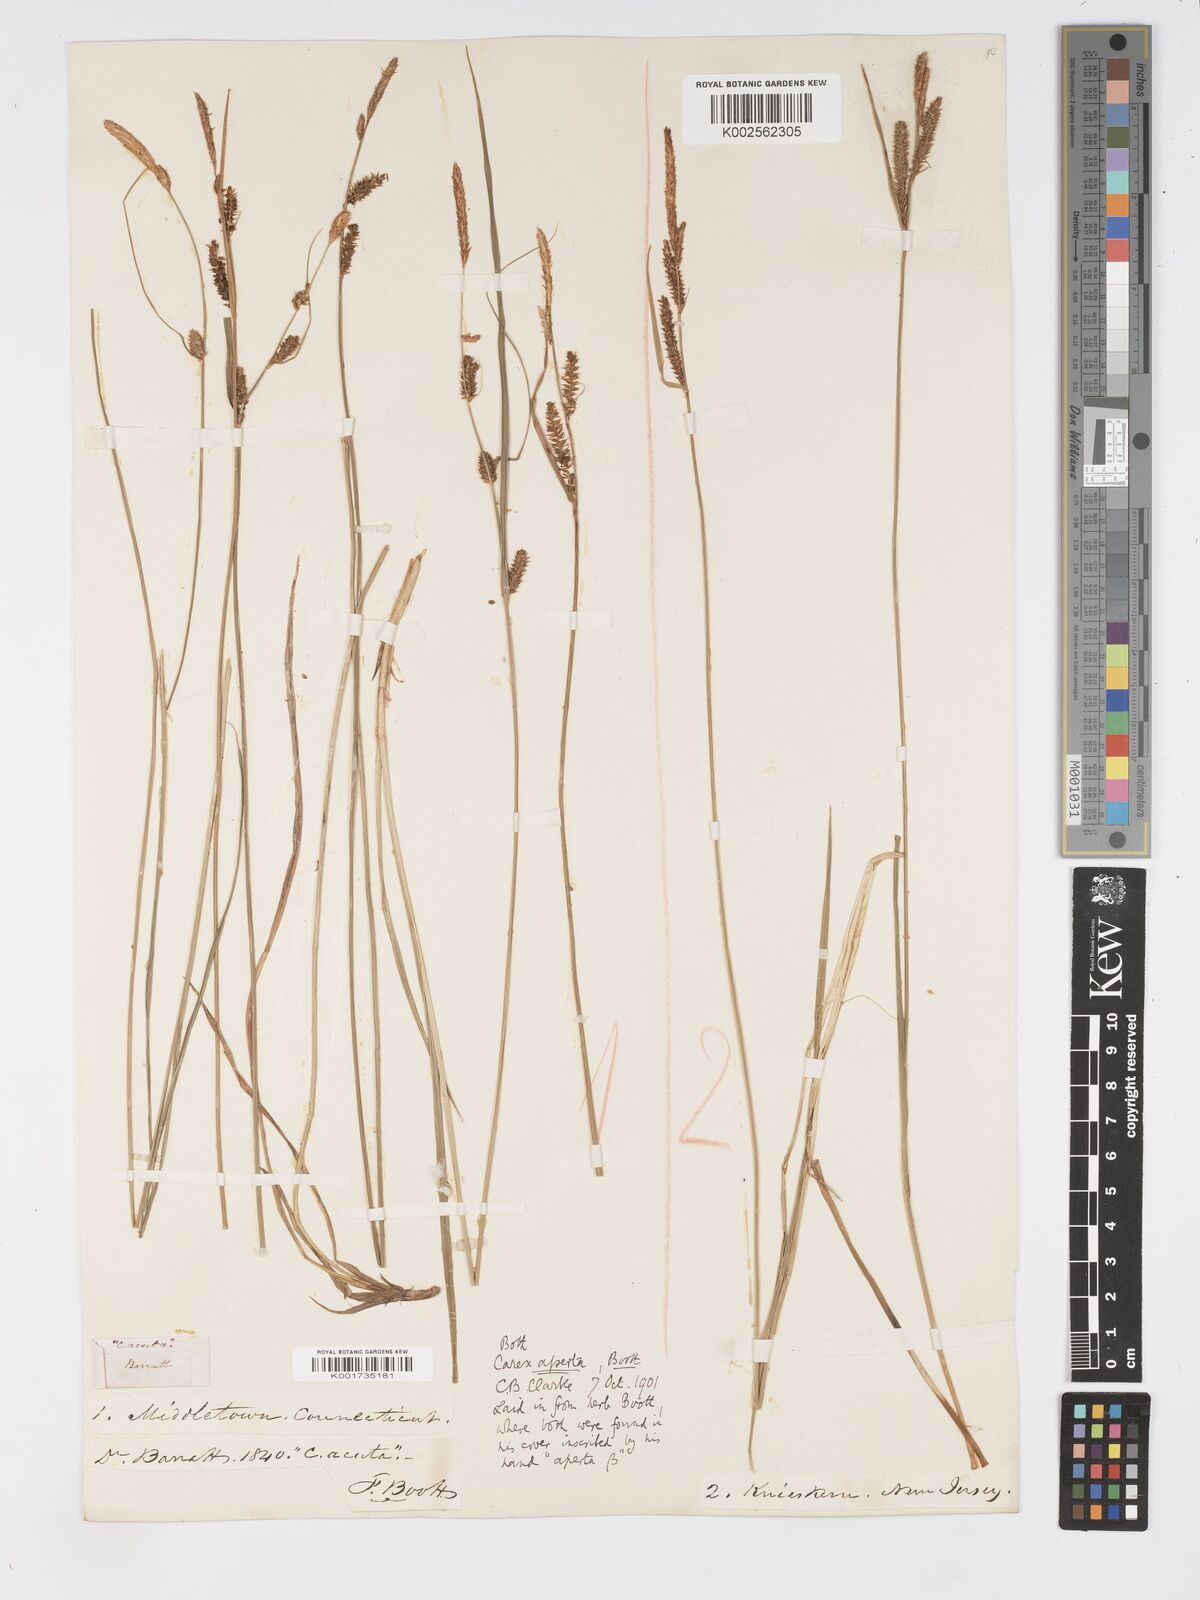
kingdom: Plantae
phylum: Tracheophyta
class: Liliopsida
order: Poales
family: Cyperaceae
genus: Carex
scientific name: Carex aperta
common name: Columbia sedge
